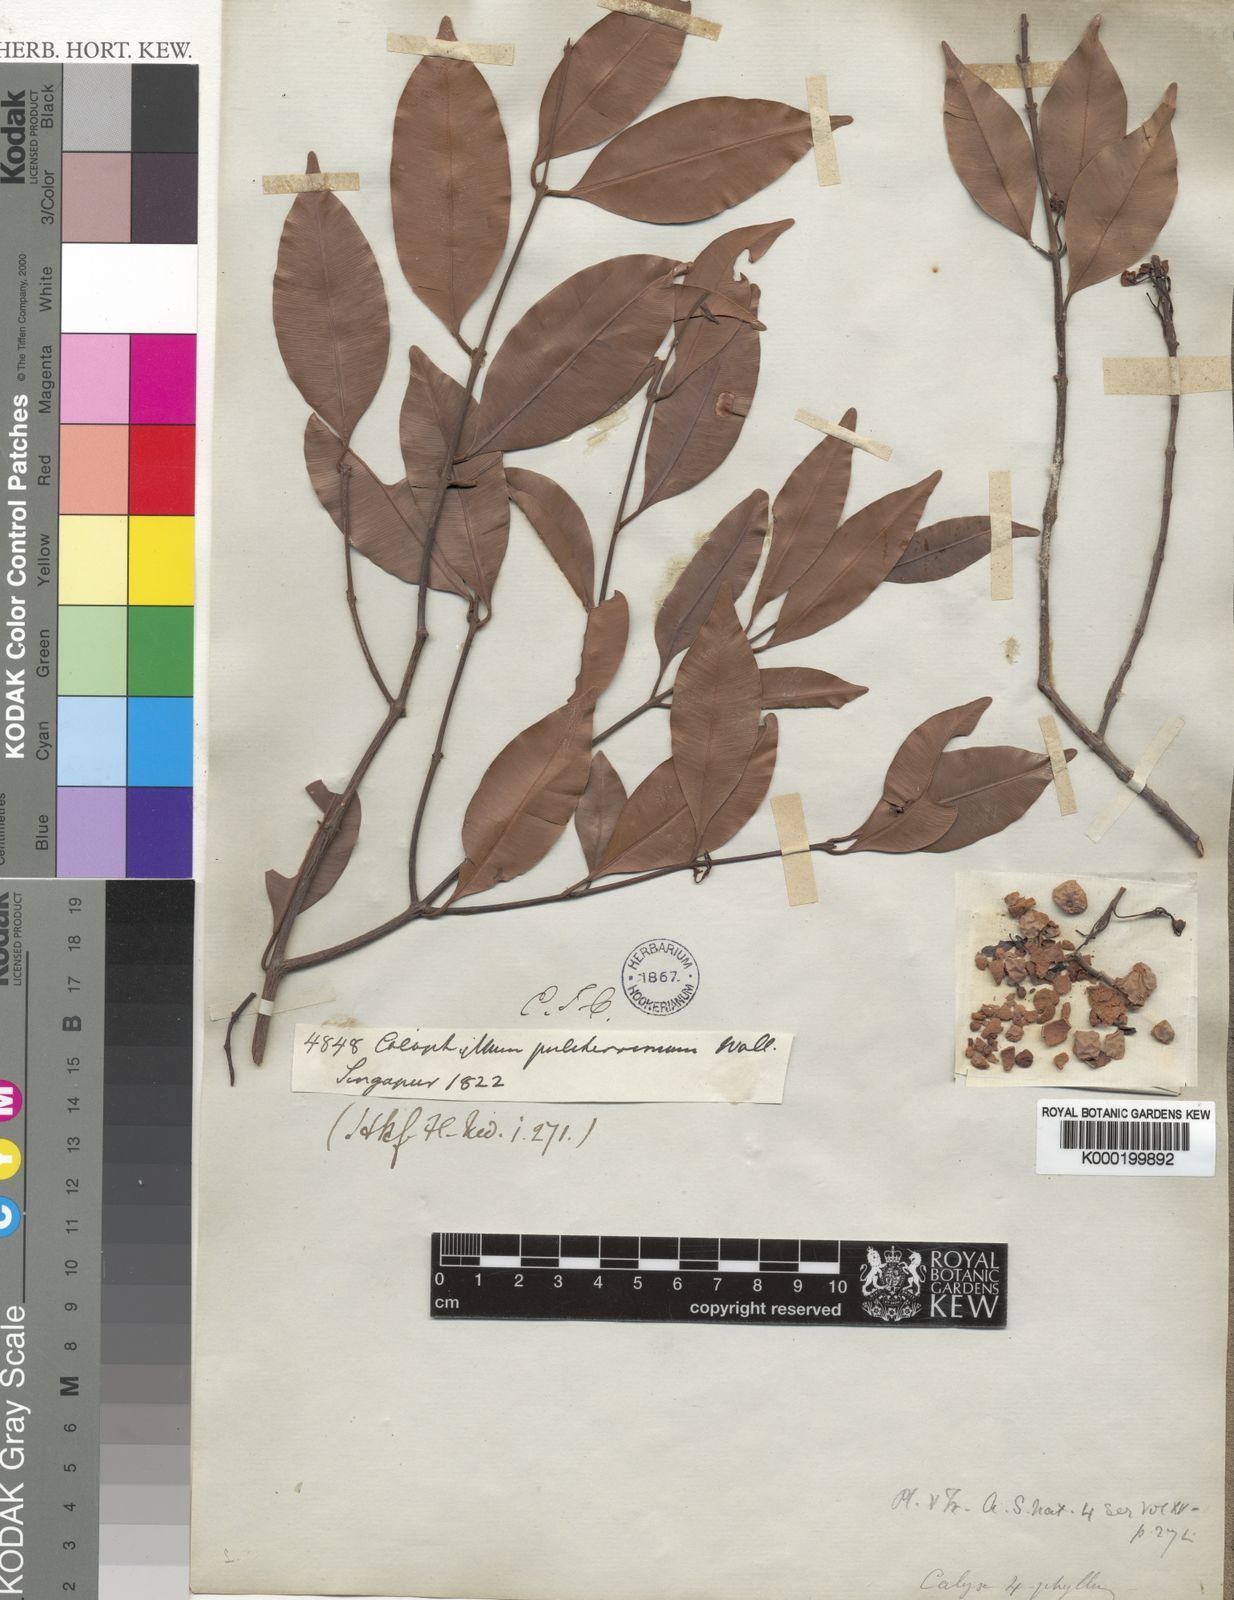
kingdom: Plantae
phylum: Tracheophyta
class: Magnoliopsida
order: Malpighiales
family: Calophyllaceae
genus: Calophyllum
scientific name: Calophyllum pulcherrimum
